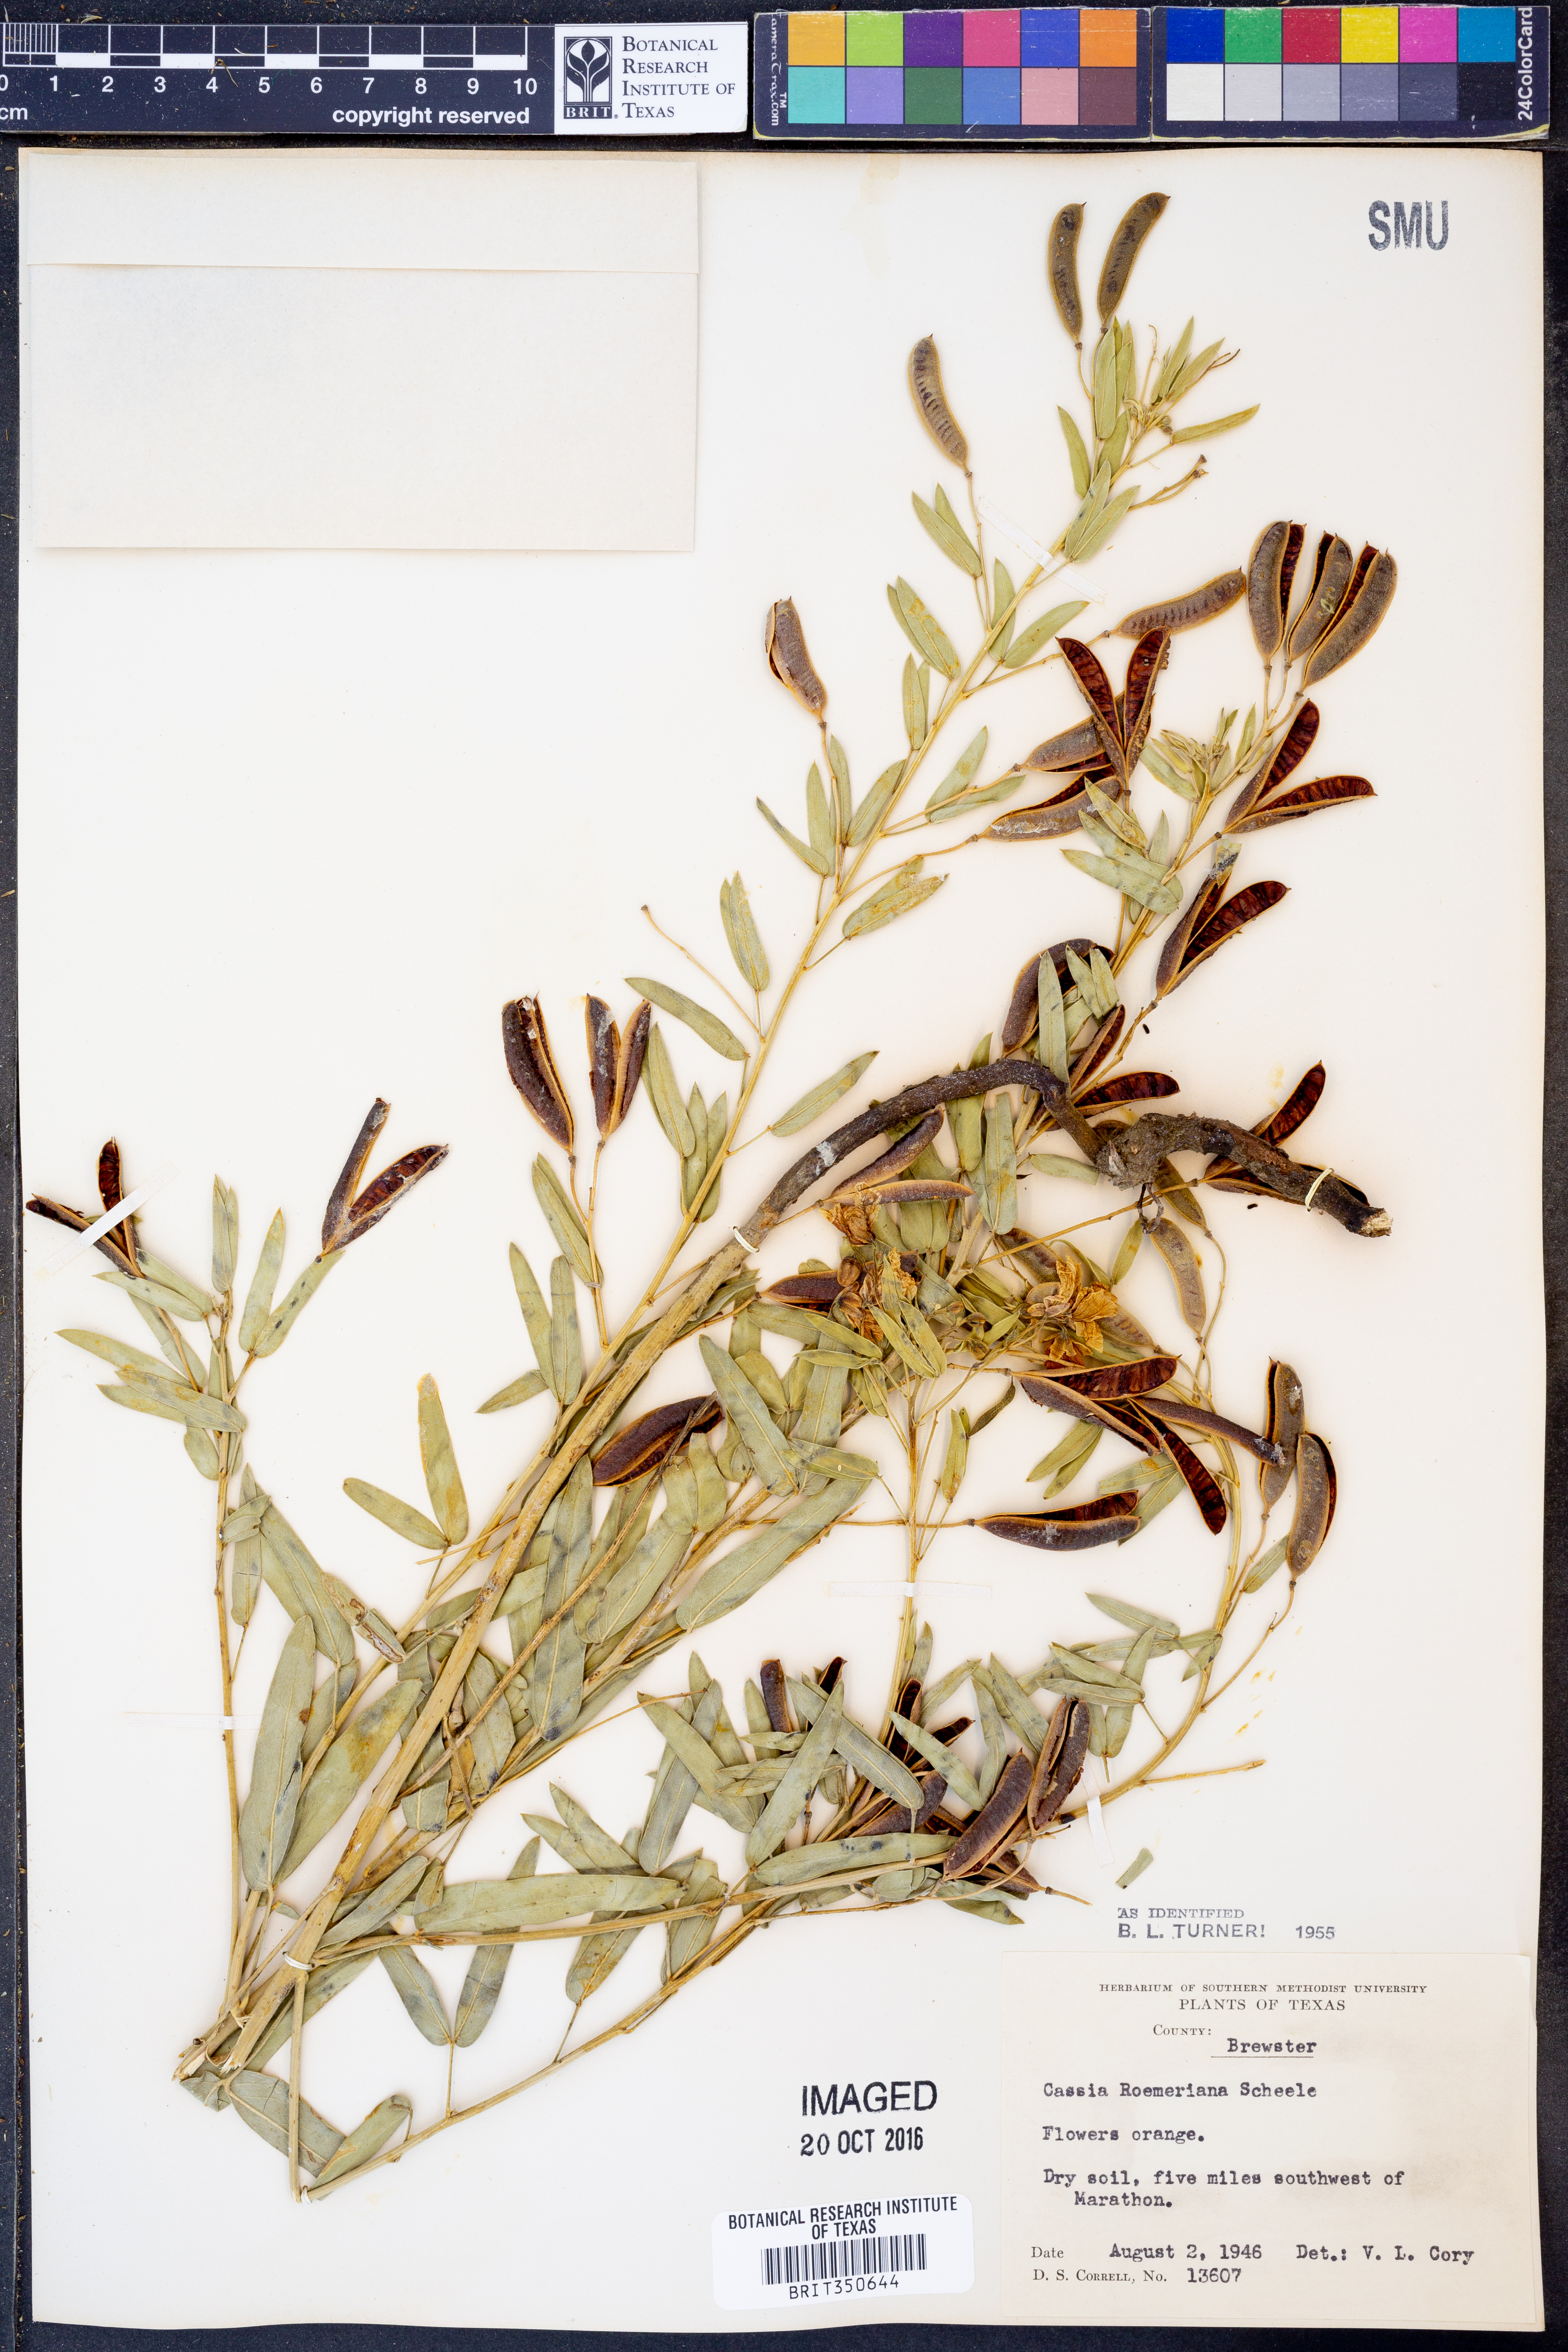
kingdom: Plantae
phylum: Tracheophyta
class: Magnoliopsida
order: Fabales
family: Fabaceae
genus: Senna
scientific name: Senna roemeriana
